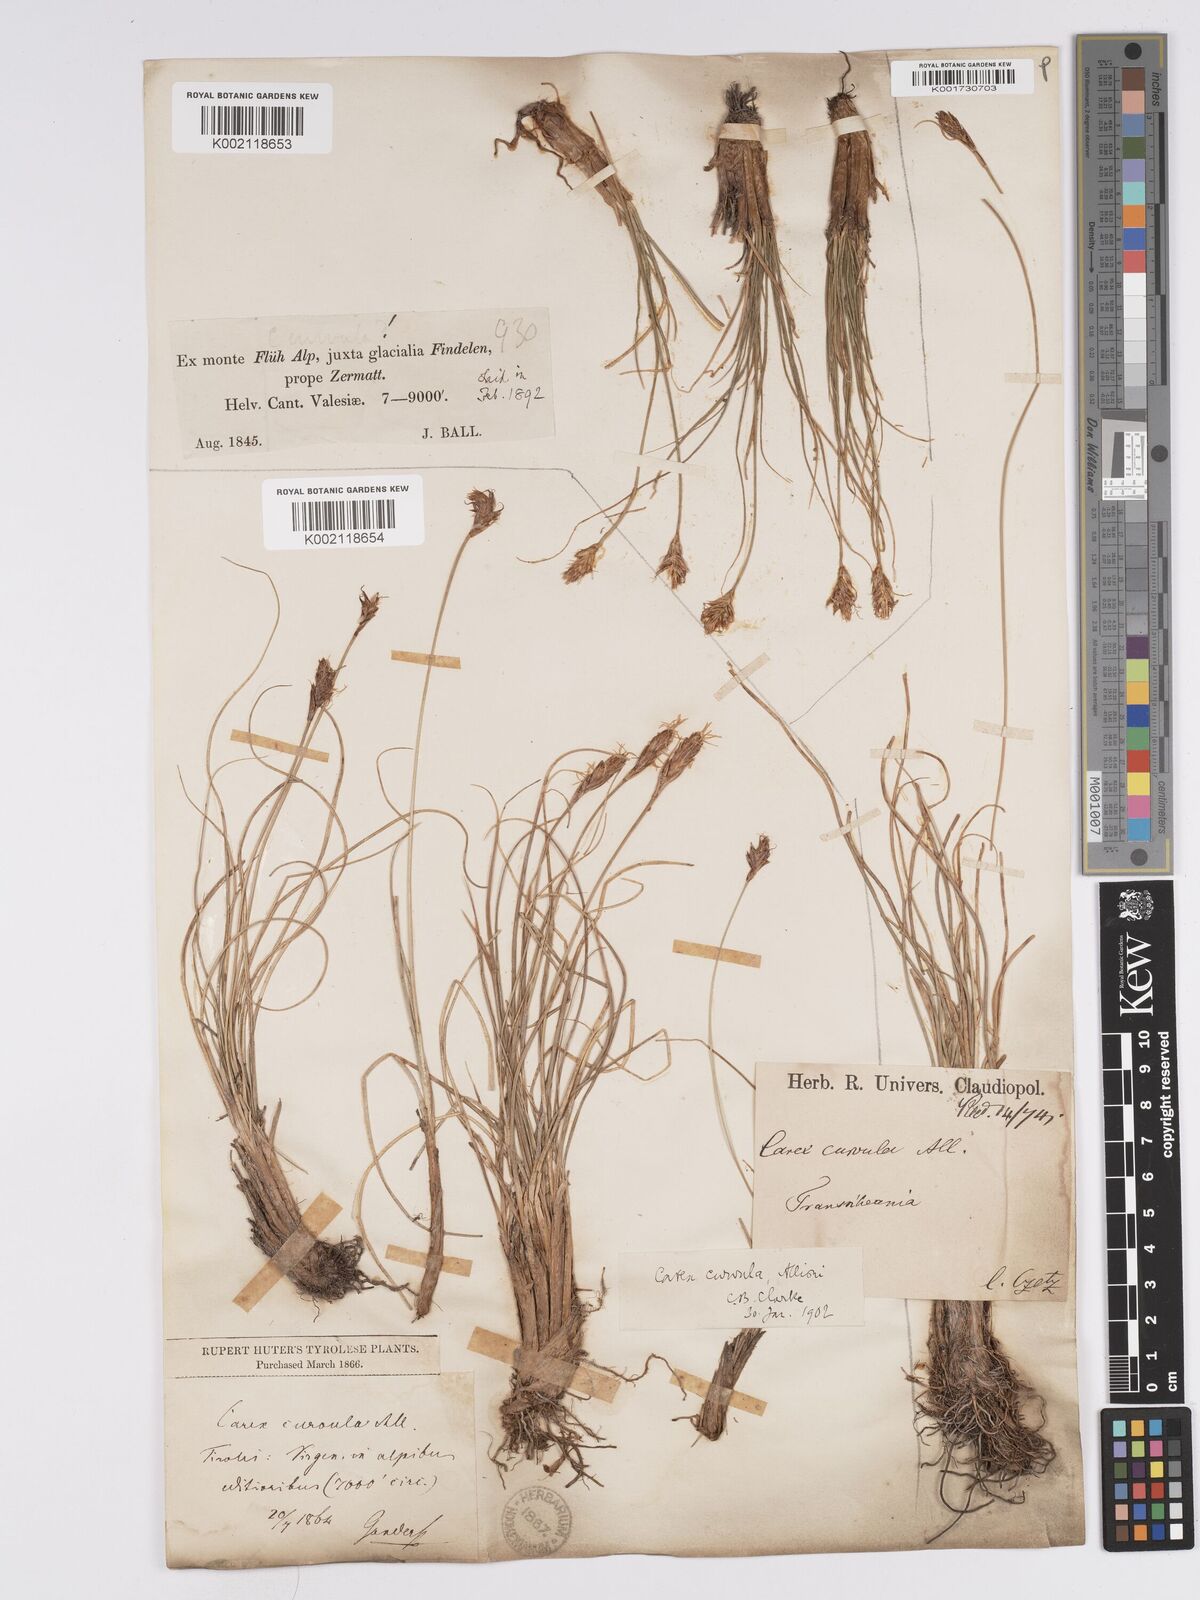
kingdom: Plantae
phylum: Tracheophyta
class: Liliopsida
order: Poales
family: Cyperaceae
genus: Carex
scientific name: Carex curvula
